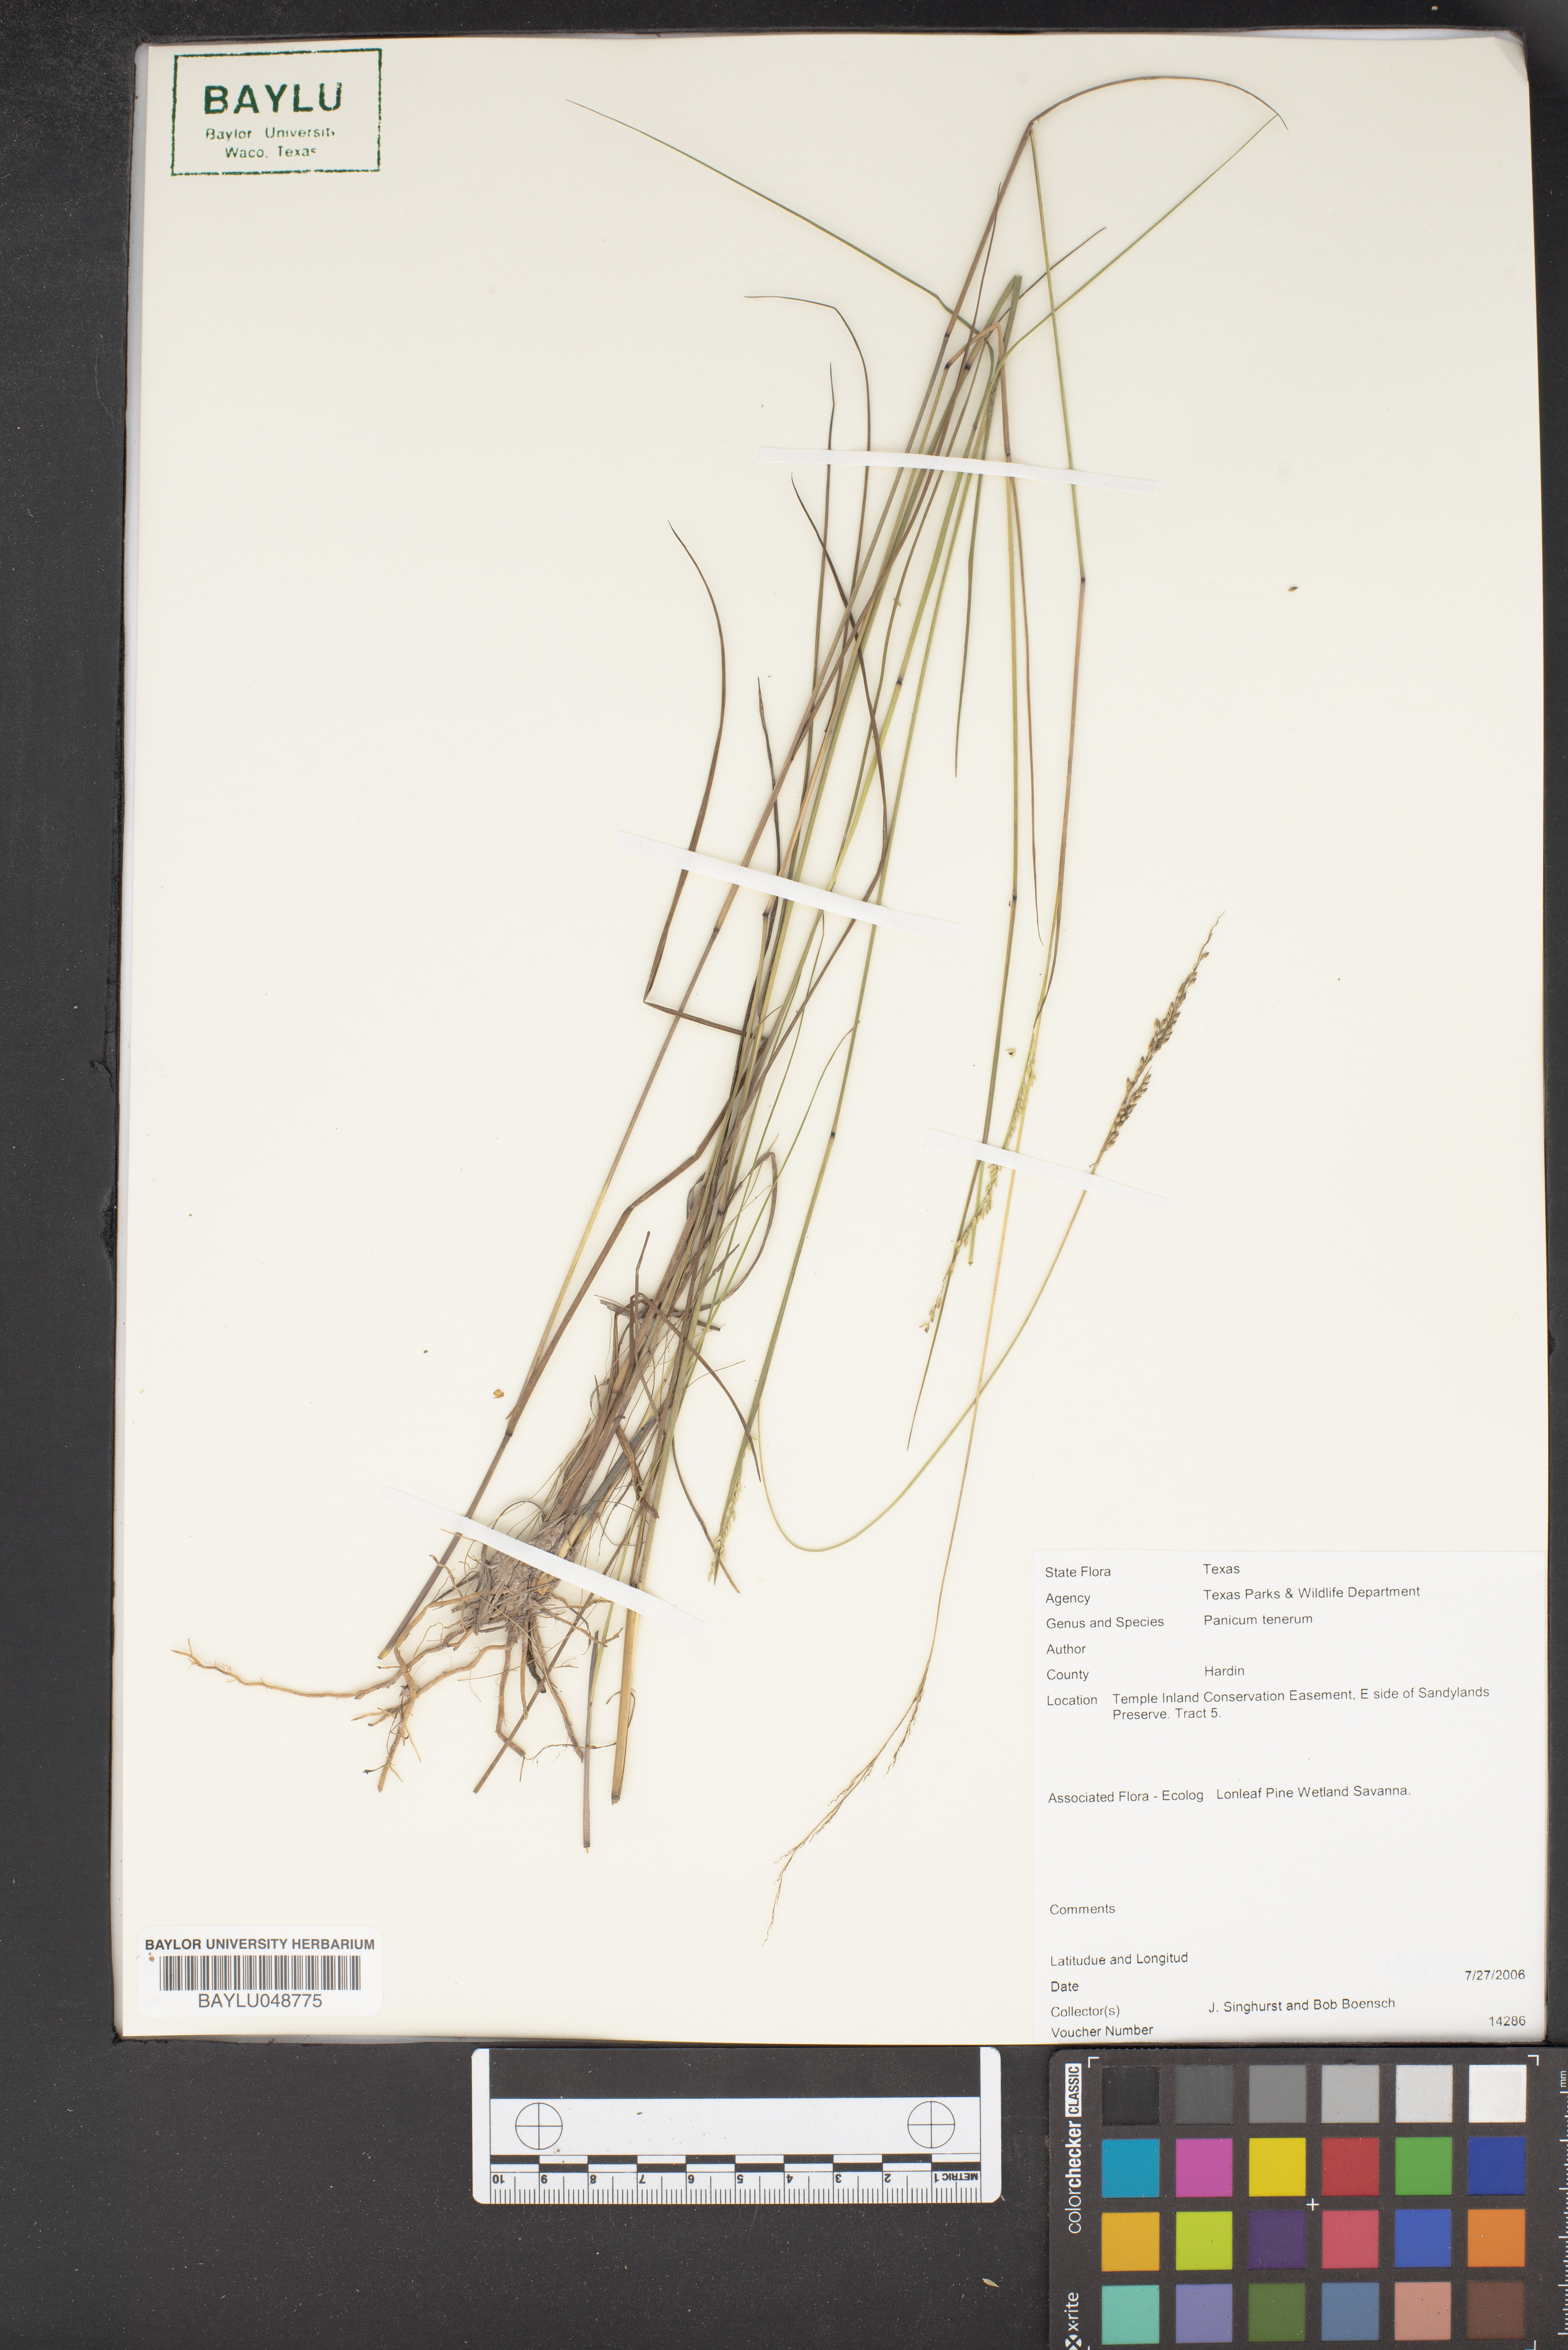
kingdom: Plantae
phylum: Tracheophyta
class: Liliopsida
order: Poales
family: Poaceae
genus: Coleataenia
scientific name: Coleataenia tenera
